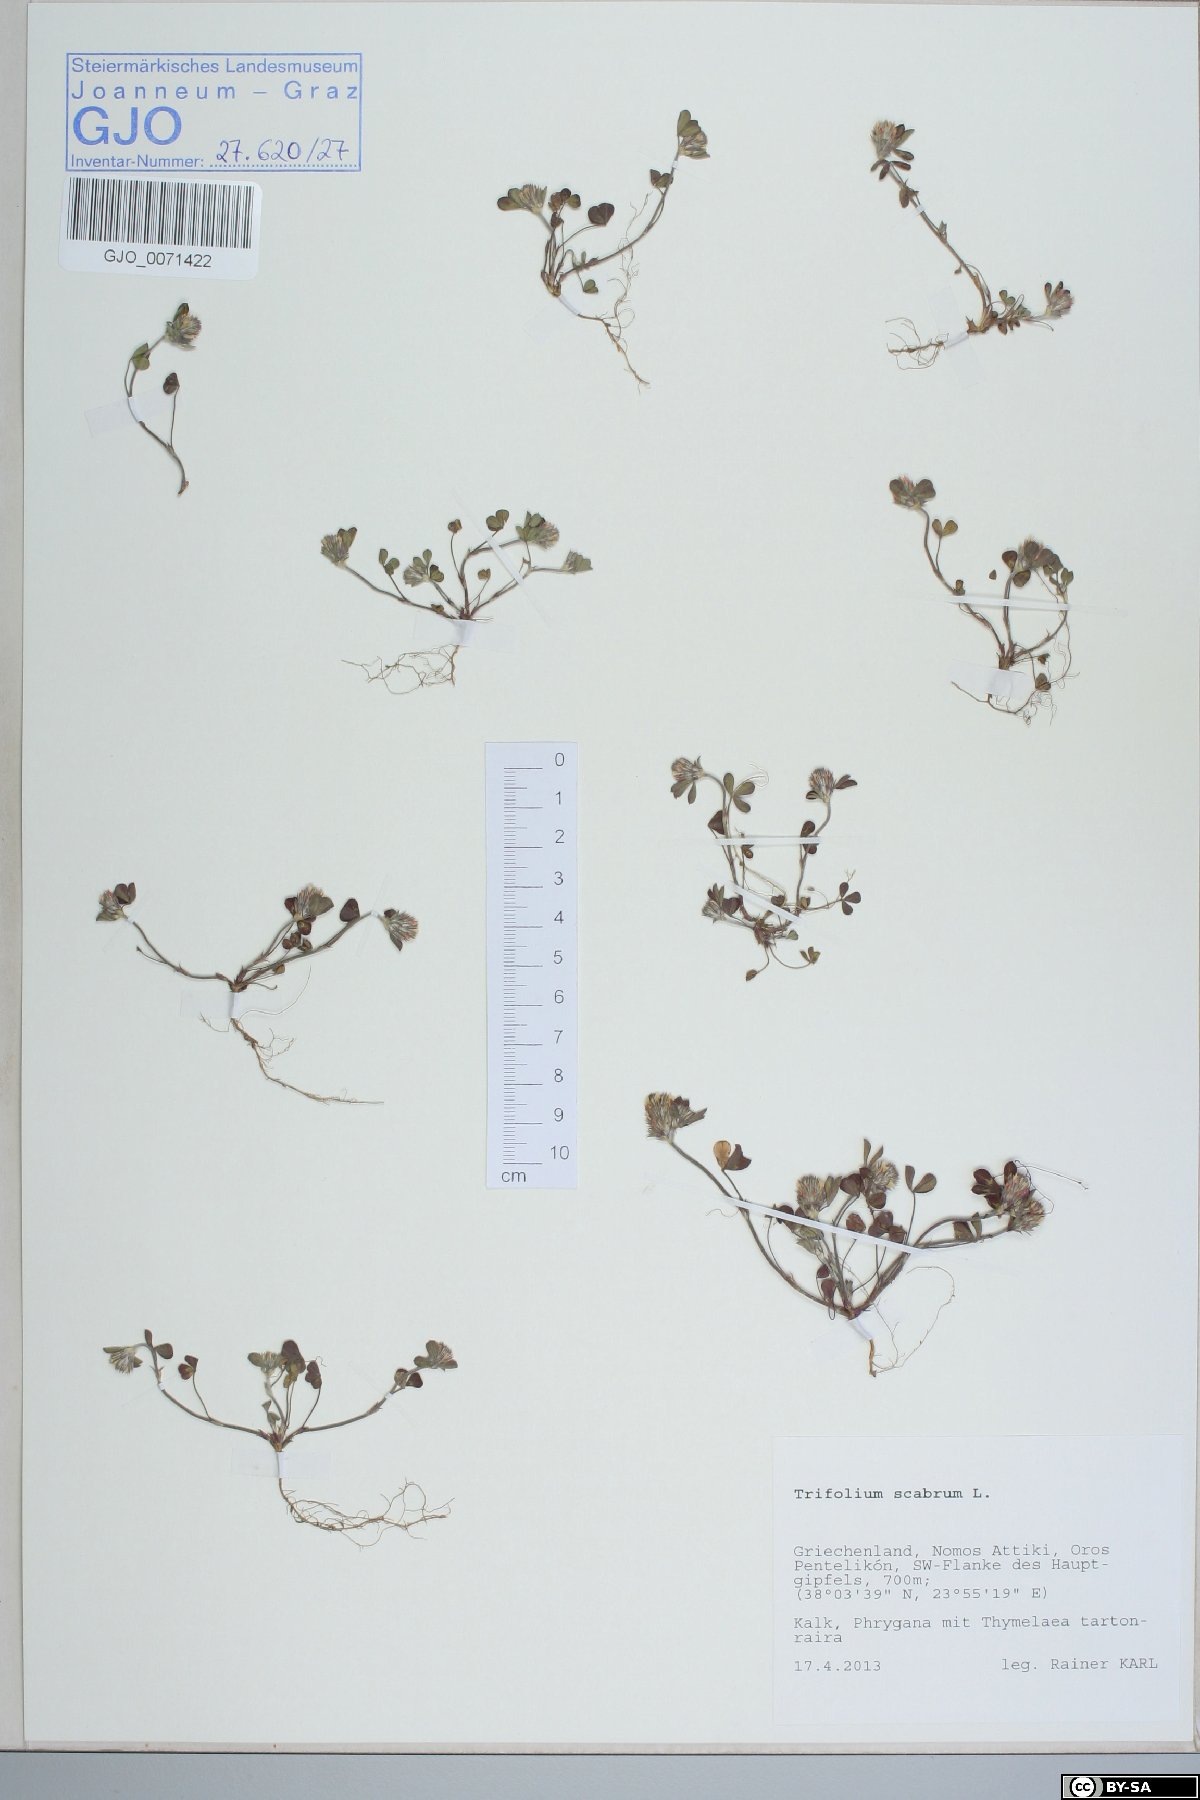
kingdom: Plantae
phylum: Tracheophyta
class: Magnoliopsida
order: Fabales
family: Fabaceae
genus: Trifolium
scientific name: Trifolium scabrum
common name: Rough clover
